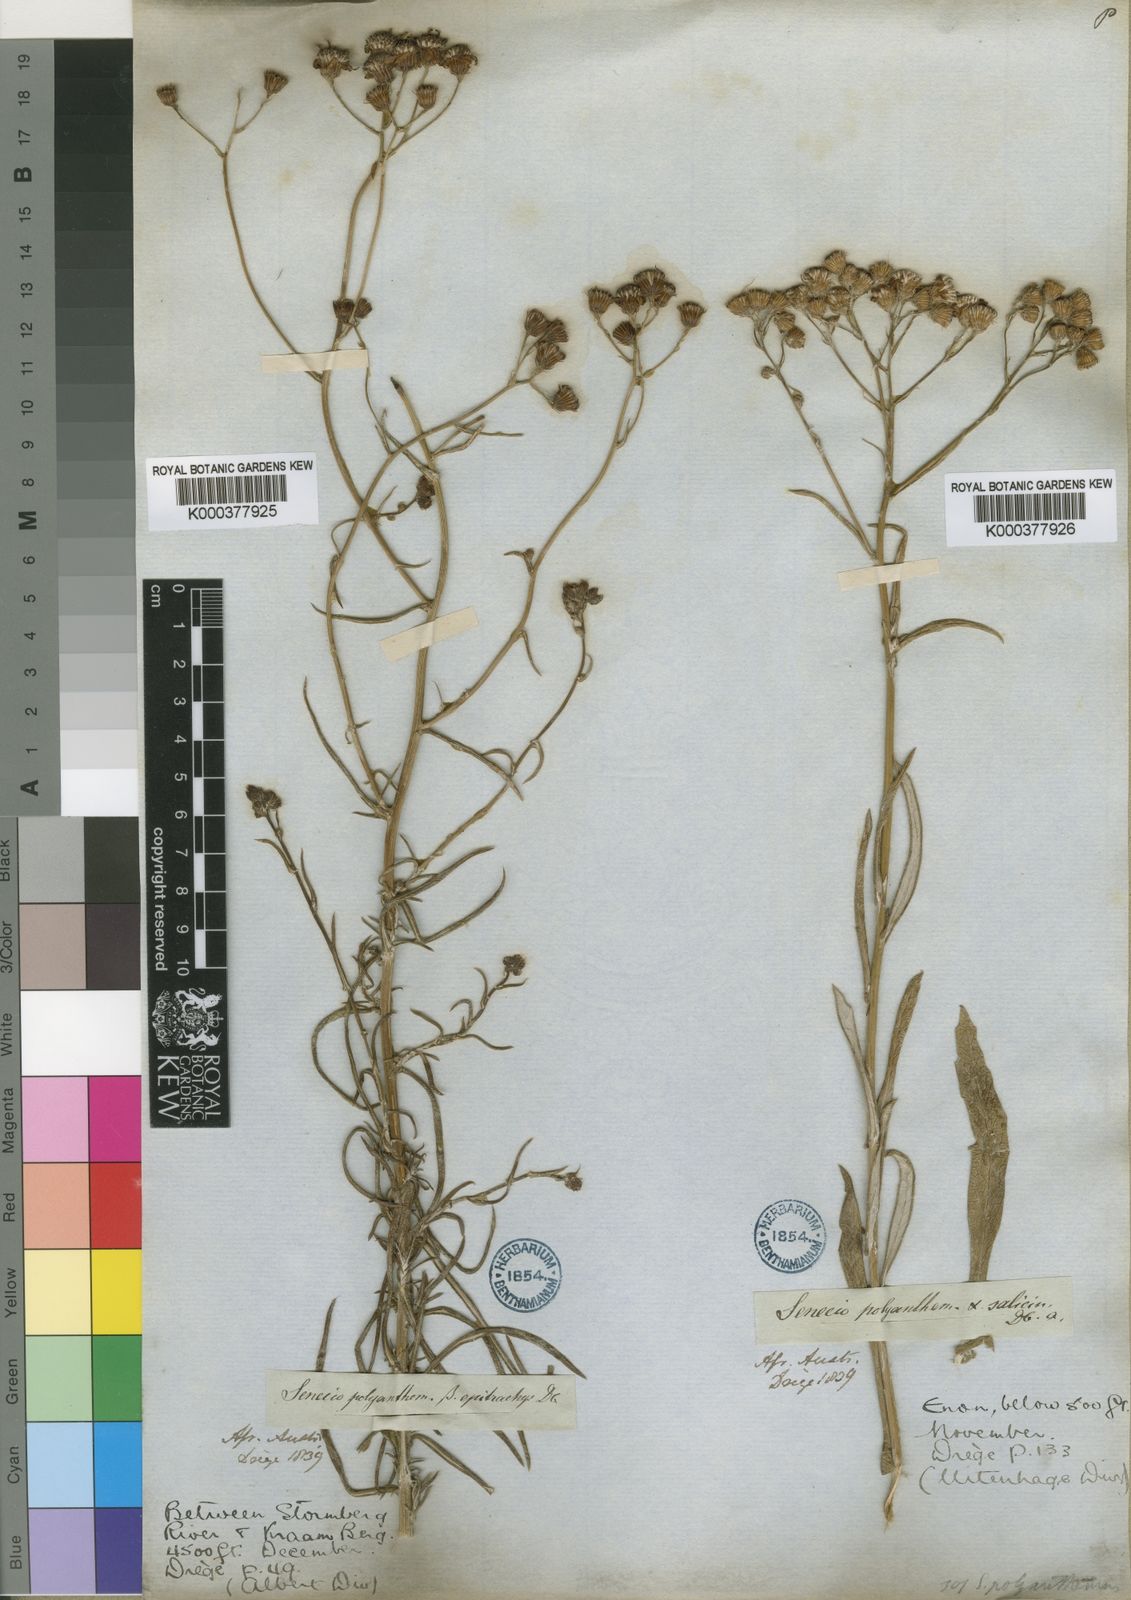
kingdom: Plantae
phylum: Tracheophyta
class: Magnoliopsida
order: Asterales
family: Asteraceae
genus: Senecio
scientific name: Senecio juniperinus
